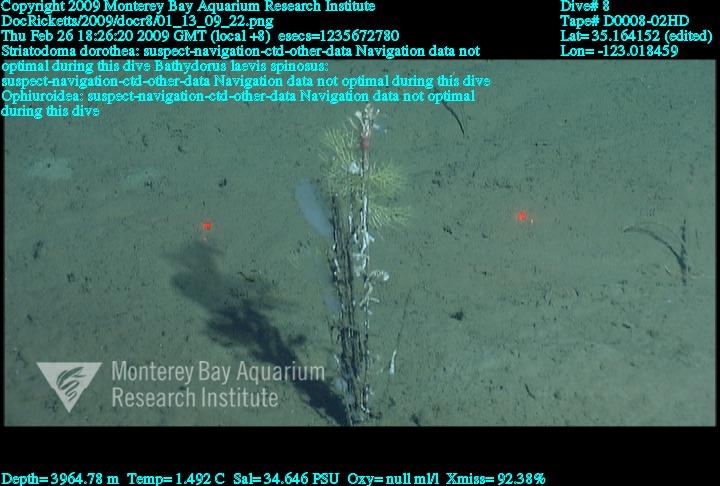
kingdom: Animalia
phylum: Porifera
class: Hexactinellida
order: Lyssacinosida
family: Rossellidae
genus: Bathydorus
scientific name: Bathydorus spinosus
